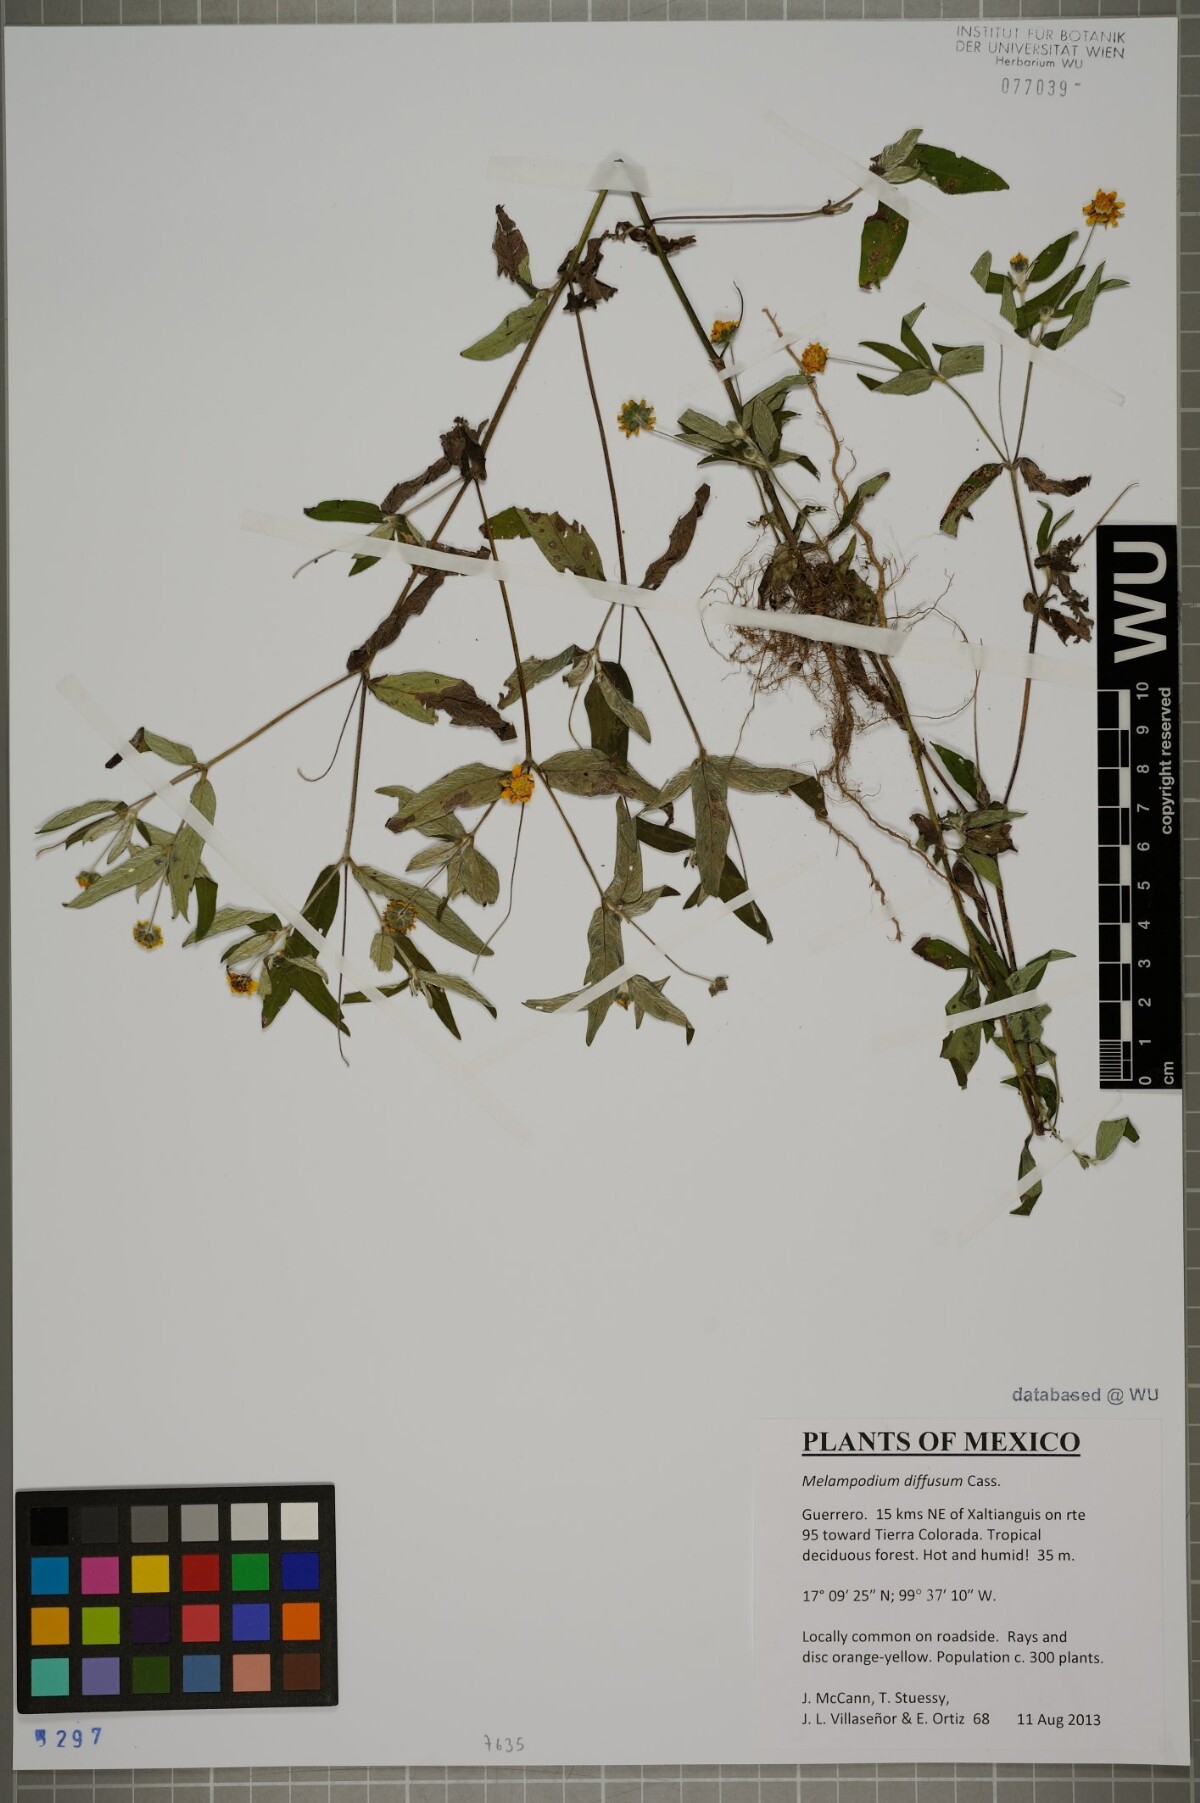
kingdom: Plantae
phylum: Tracheophyta
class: Magnoliopsida
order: Asterales
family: Asteraceae
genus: Melampodium
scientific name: Melampodium diffusum
